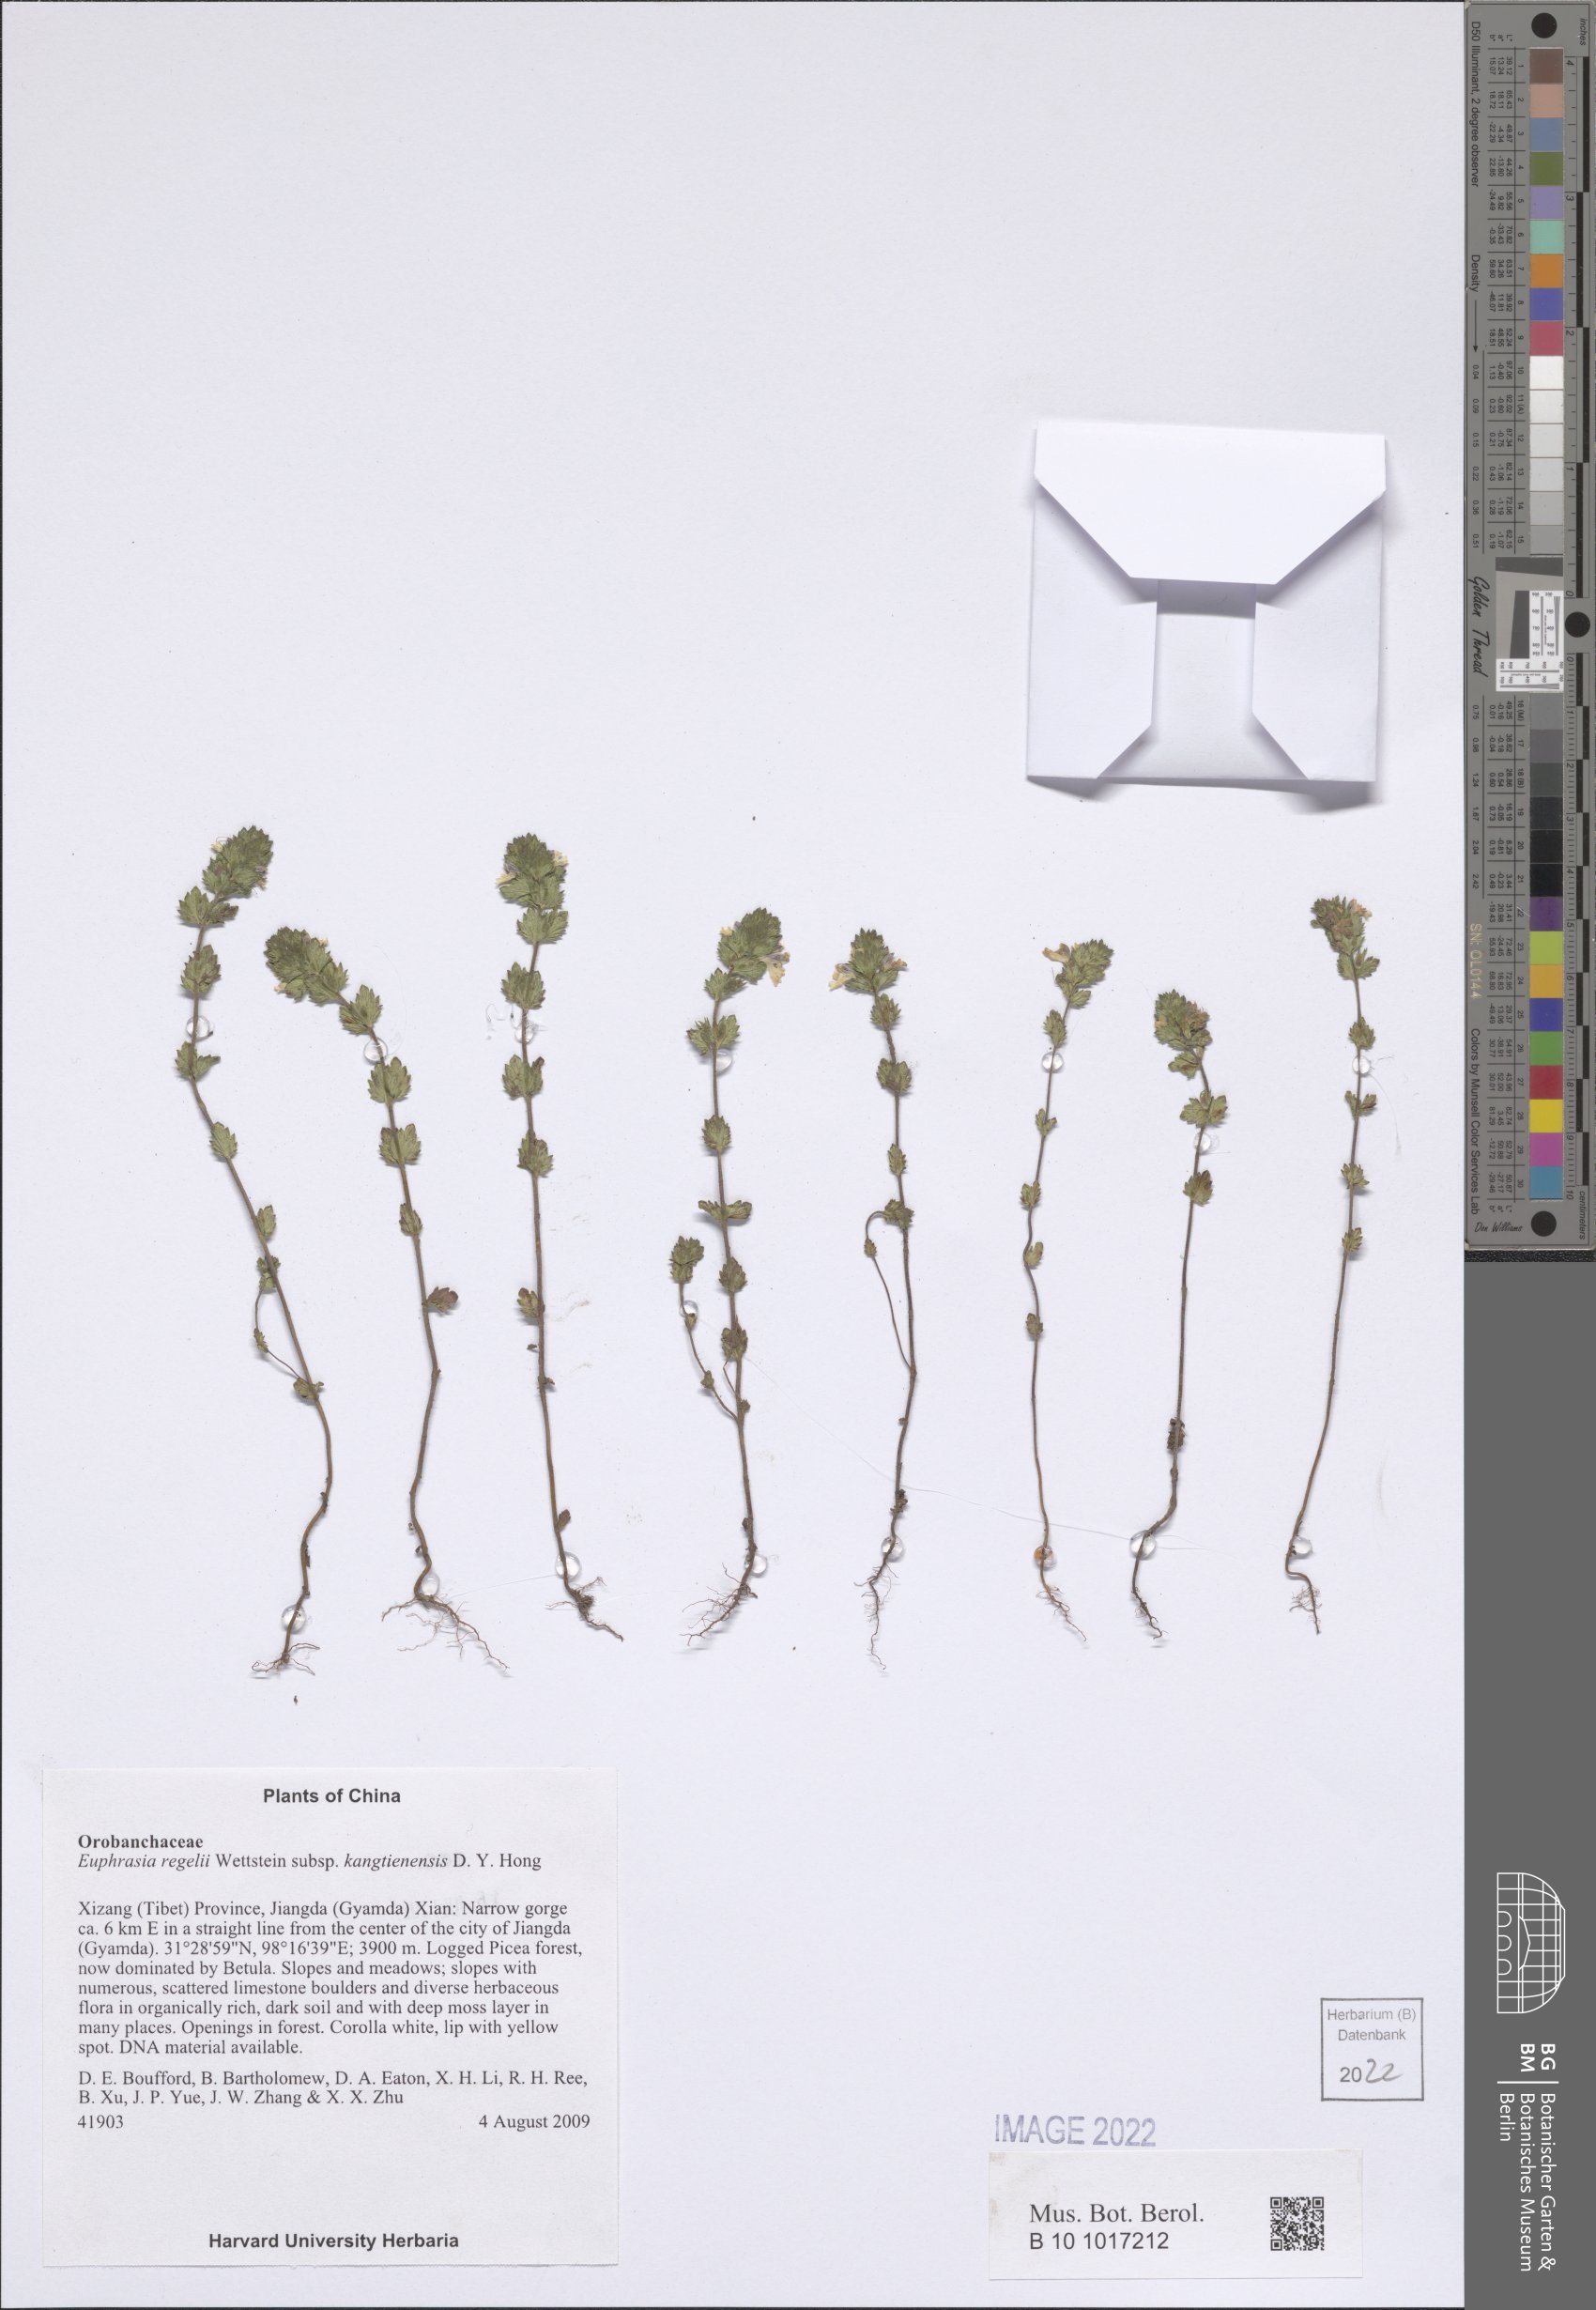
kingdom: Plantae
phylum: Tracheophyta
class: Magnoliopsida
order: Lamiales
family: Orobanchaceae
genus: Euphrasia
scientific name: Euphrasia regelii
